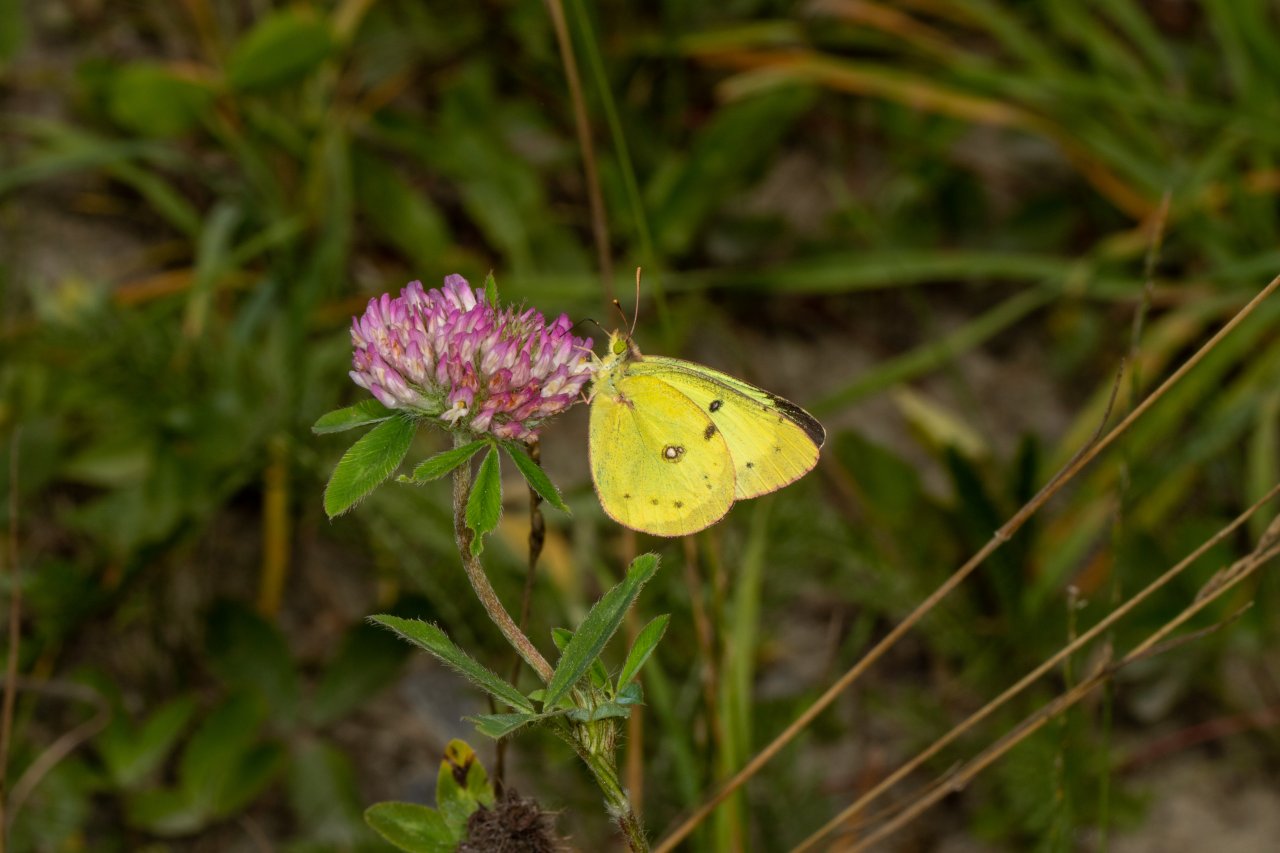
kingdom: Animalia
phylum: Arthropoda
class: Insecta
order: Lepidoptera
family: Pieridae
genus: Colias
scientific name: Colias philodice
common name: Clouded Sulphur
